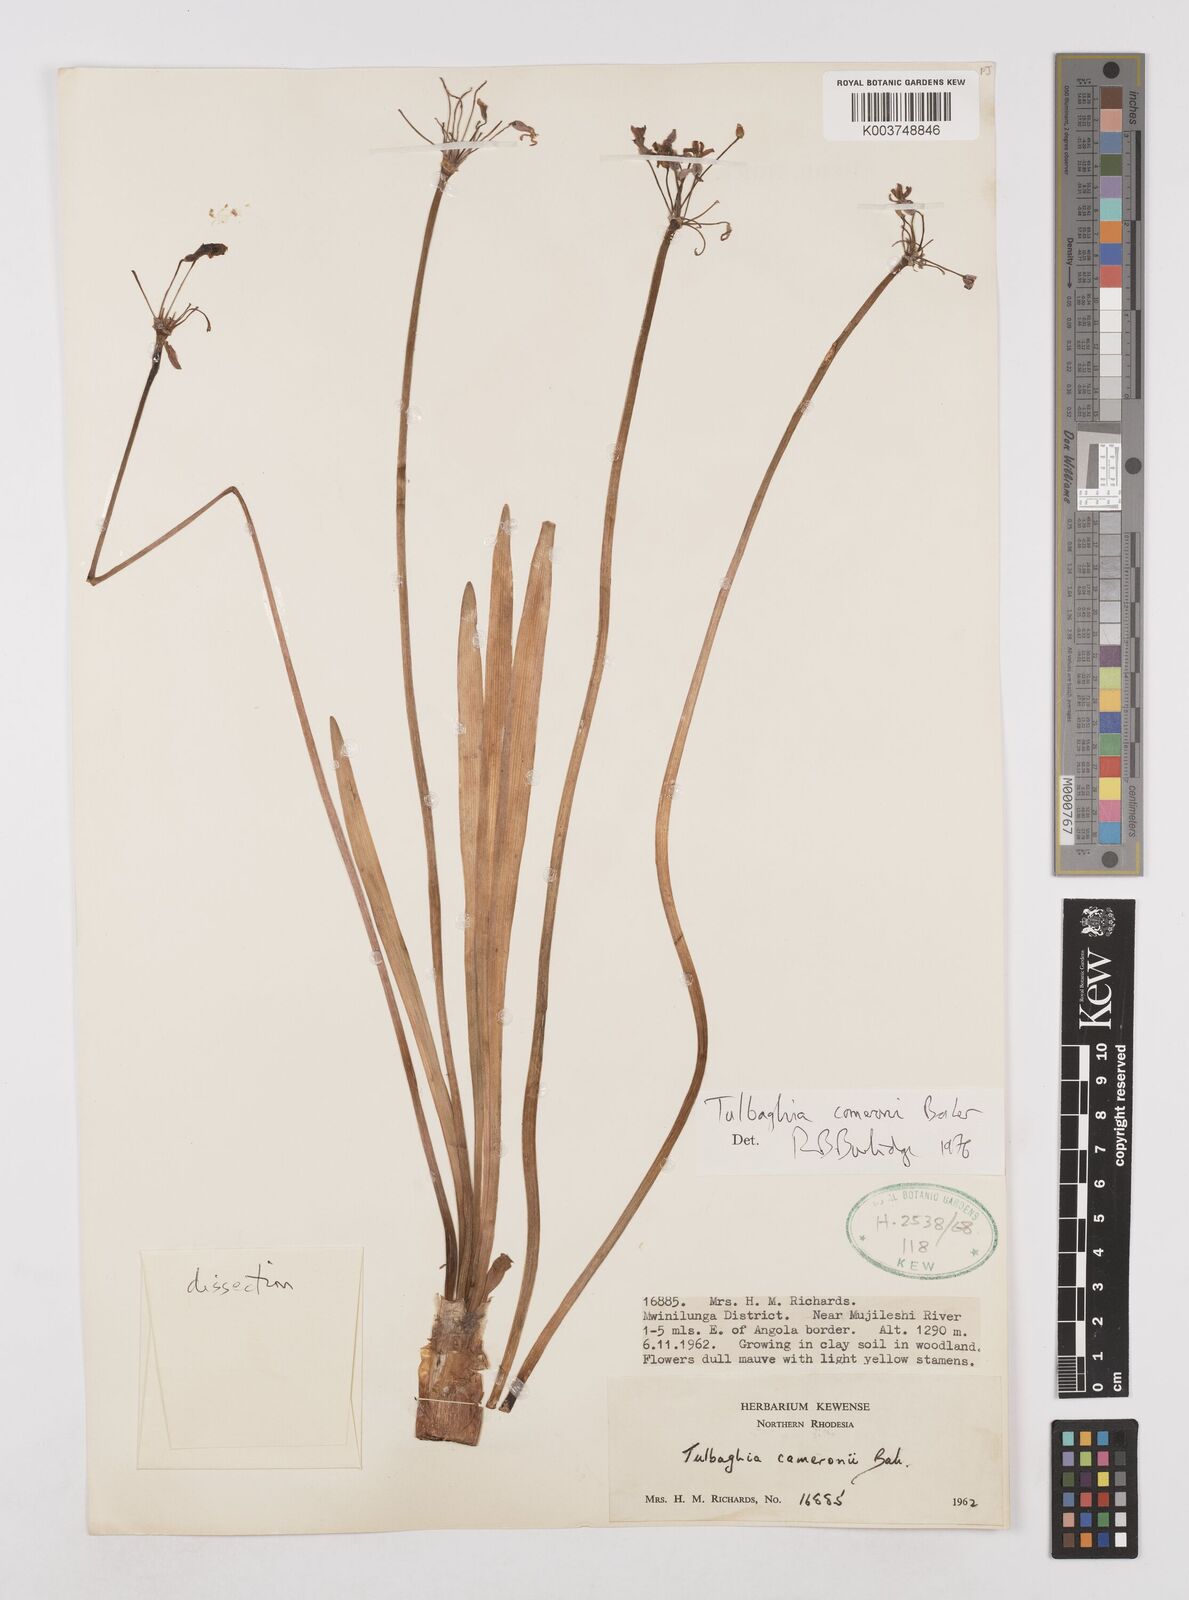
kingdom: Plantae
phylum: Tracheophyta
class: Liliopsida
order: Asparagales
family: Amaryllidaceae
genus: Tulbaghia
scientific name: Tulbaghia cameronii
